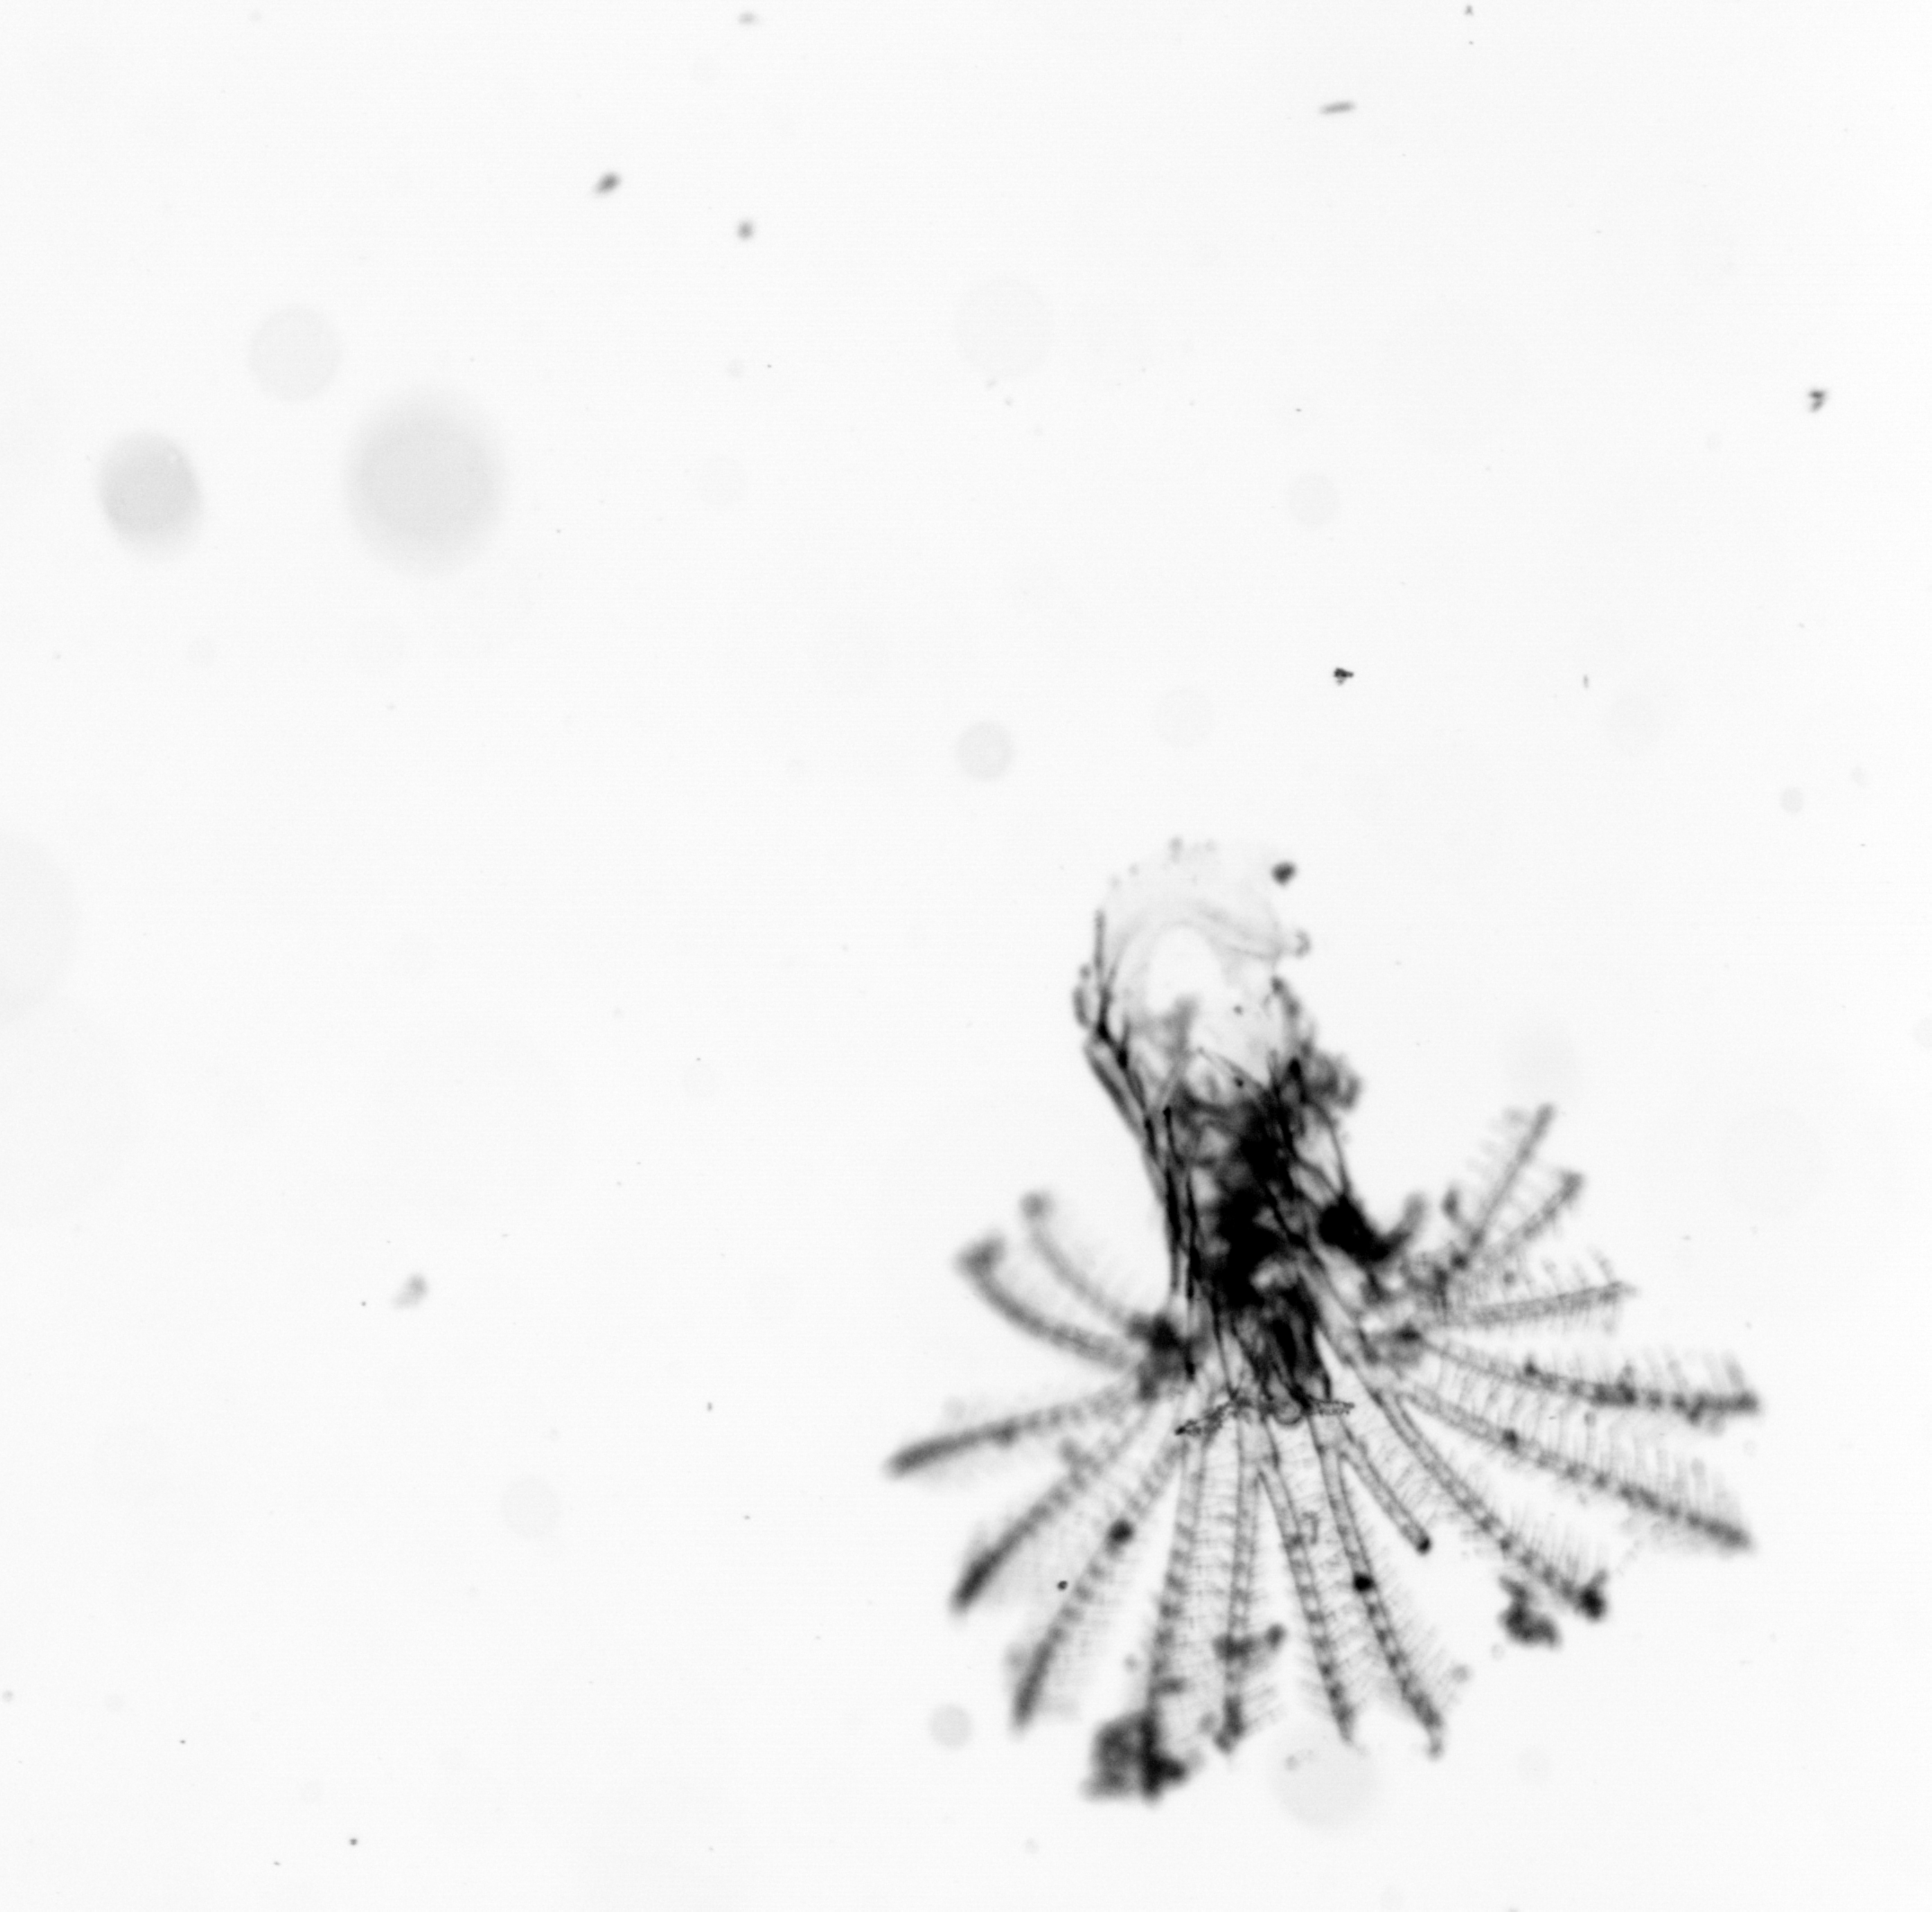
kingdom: Animalia
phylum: Arthropoda
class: Maxillopoda
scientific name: Maxillopoda
